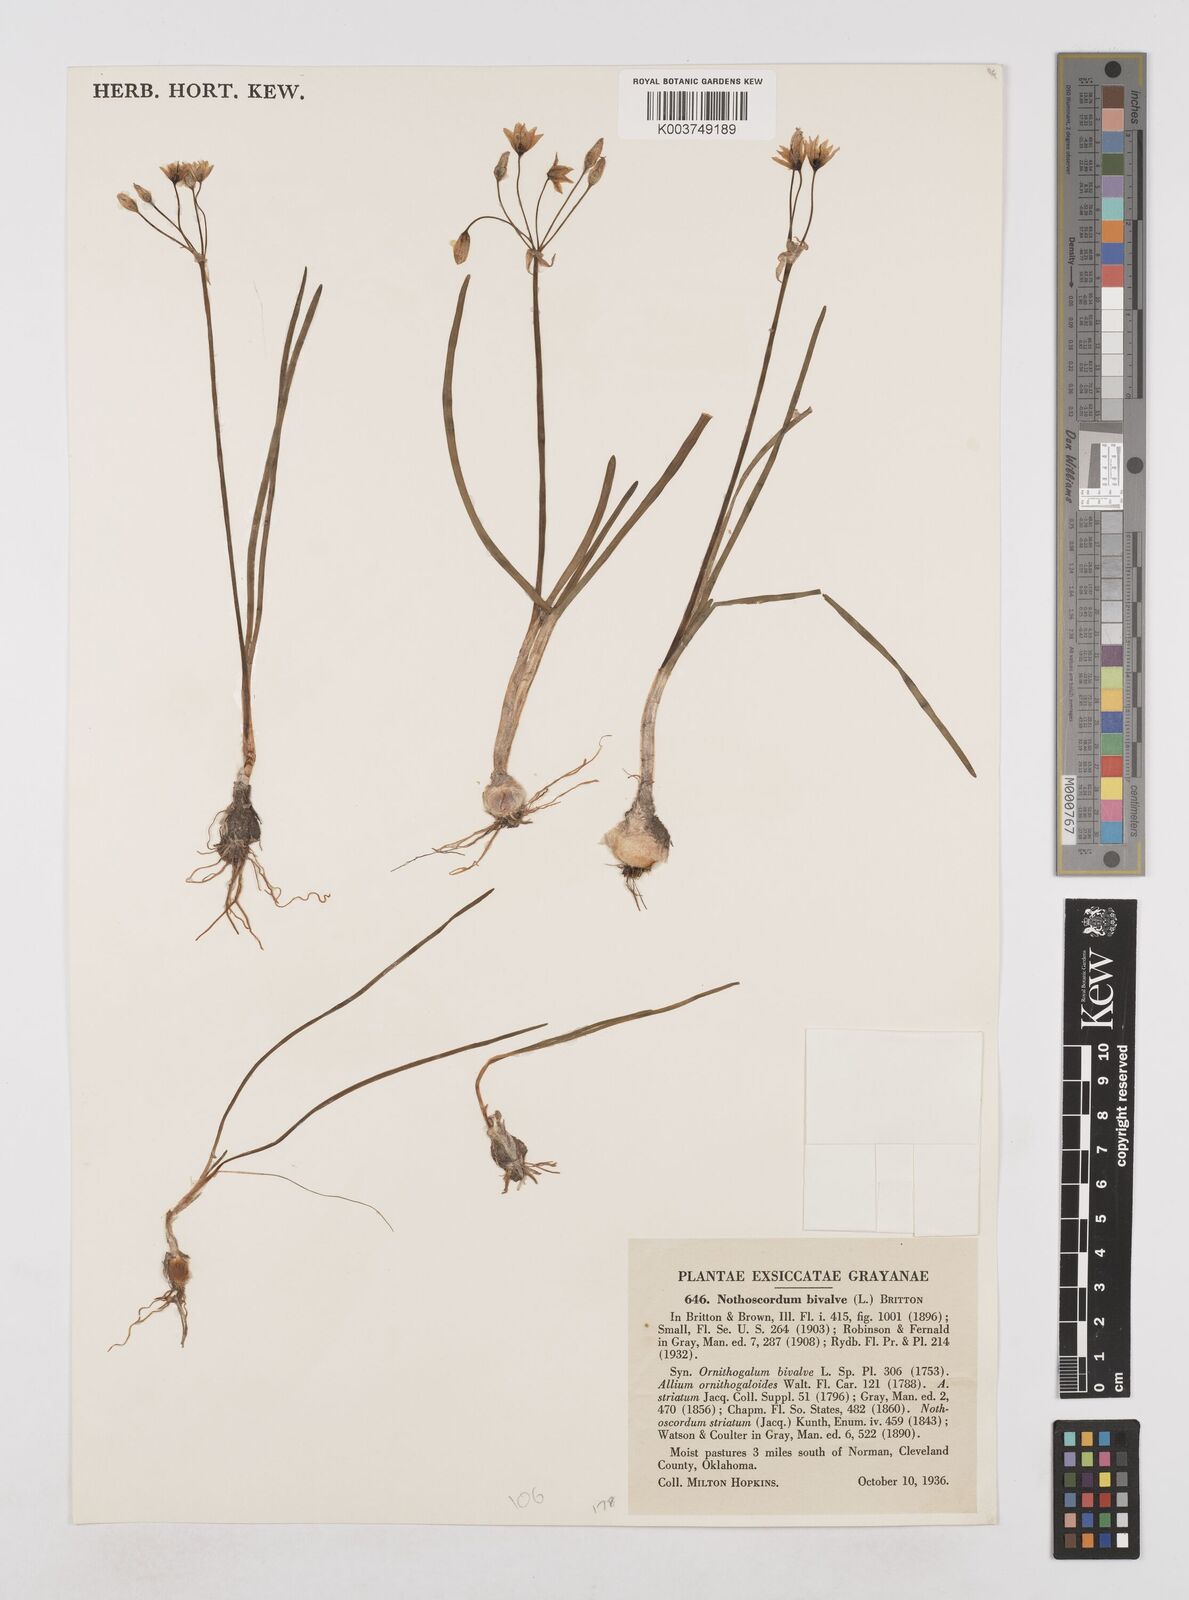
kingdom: Plantae
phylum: Tracheophyta
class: Liliopsida
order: Asparagales
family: Amaryllidaceae
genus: Nothoscordum
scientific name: Nothoscordum bivalve
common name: Crow-poison
